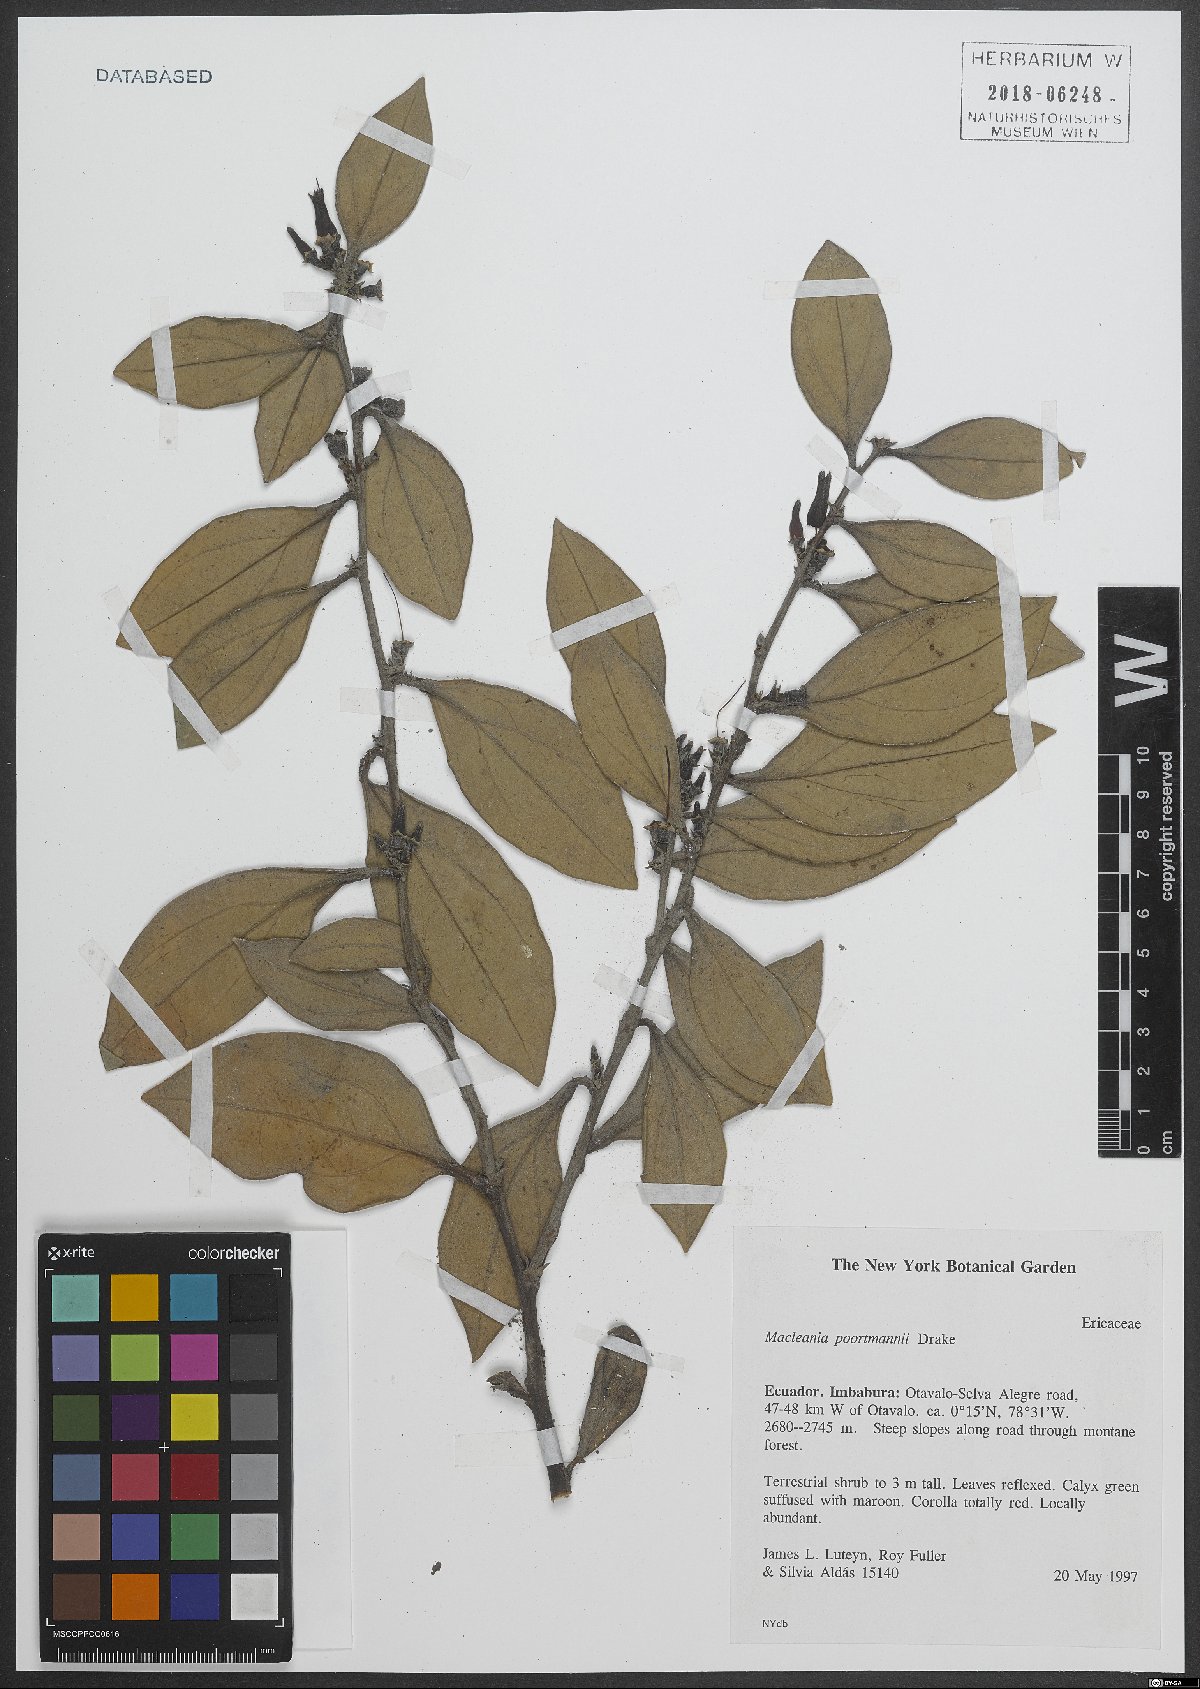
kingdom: Plantae
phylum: Tracheophyta
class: Magnoliopsida
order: Ericales
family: Ericaceae
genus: Macleania
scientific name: Macleania poortmannii
